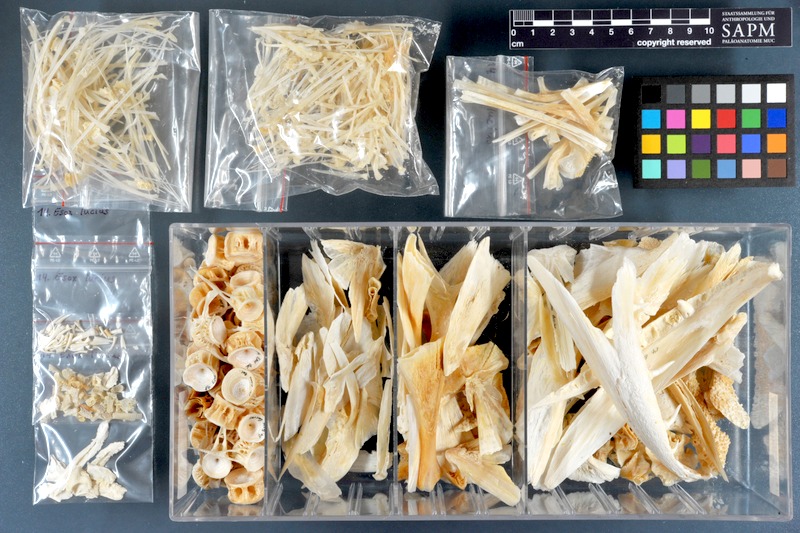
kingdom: Animalia
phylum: Chordata
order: Esociformes
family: Esocidae
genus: Esox
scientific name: Esox lucius
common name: Northern pike
